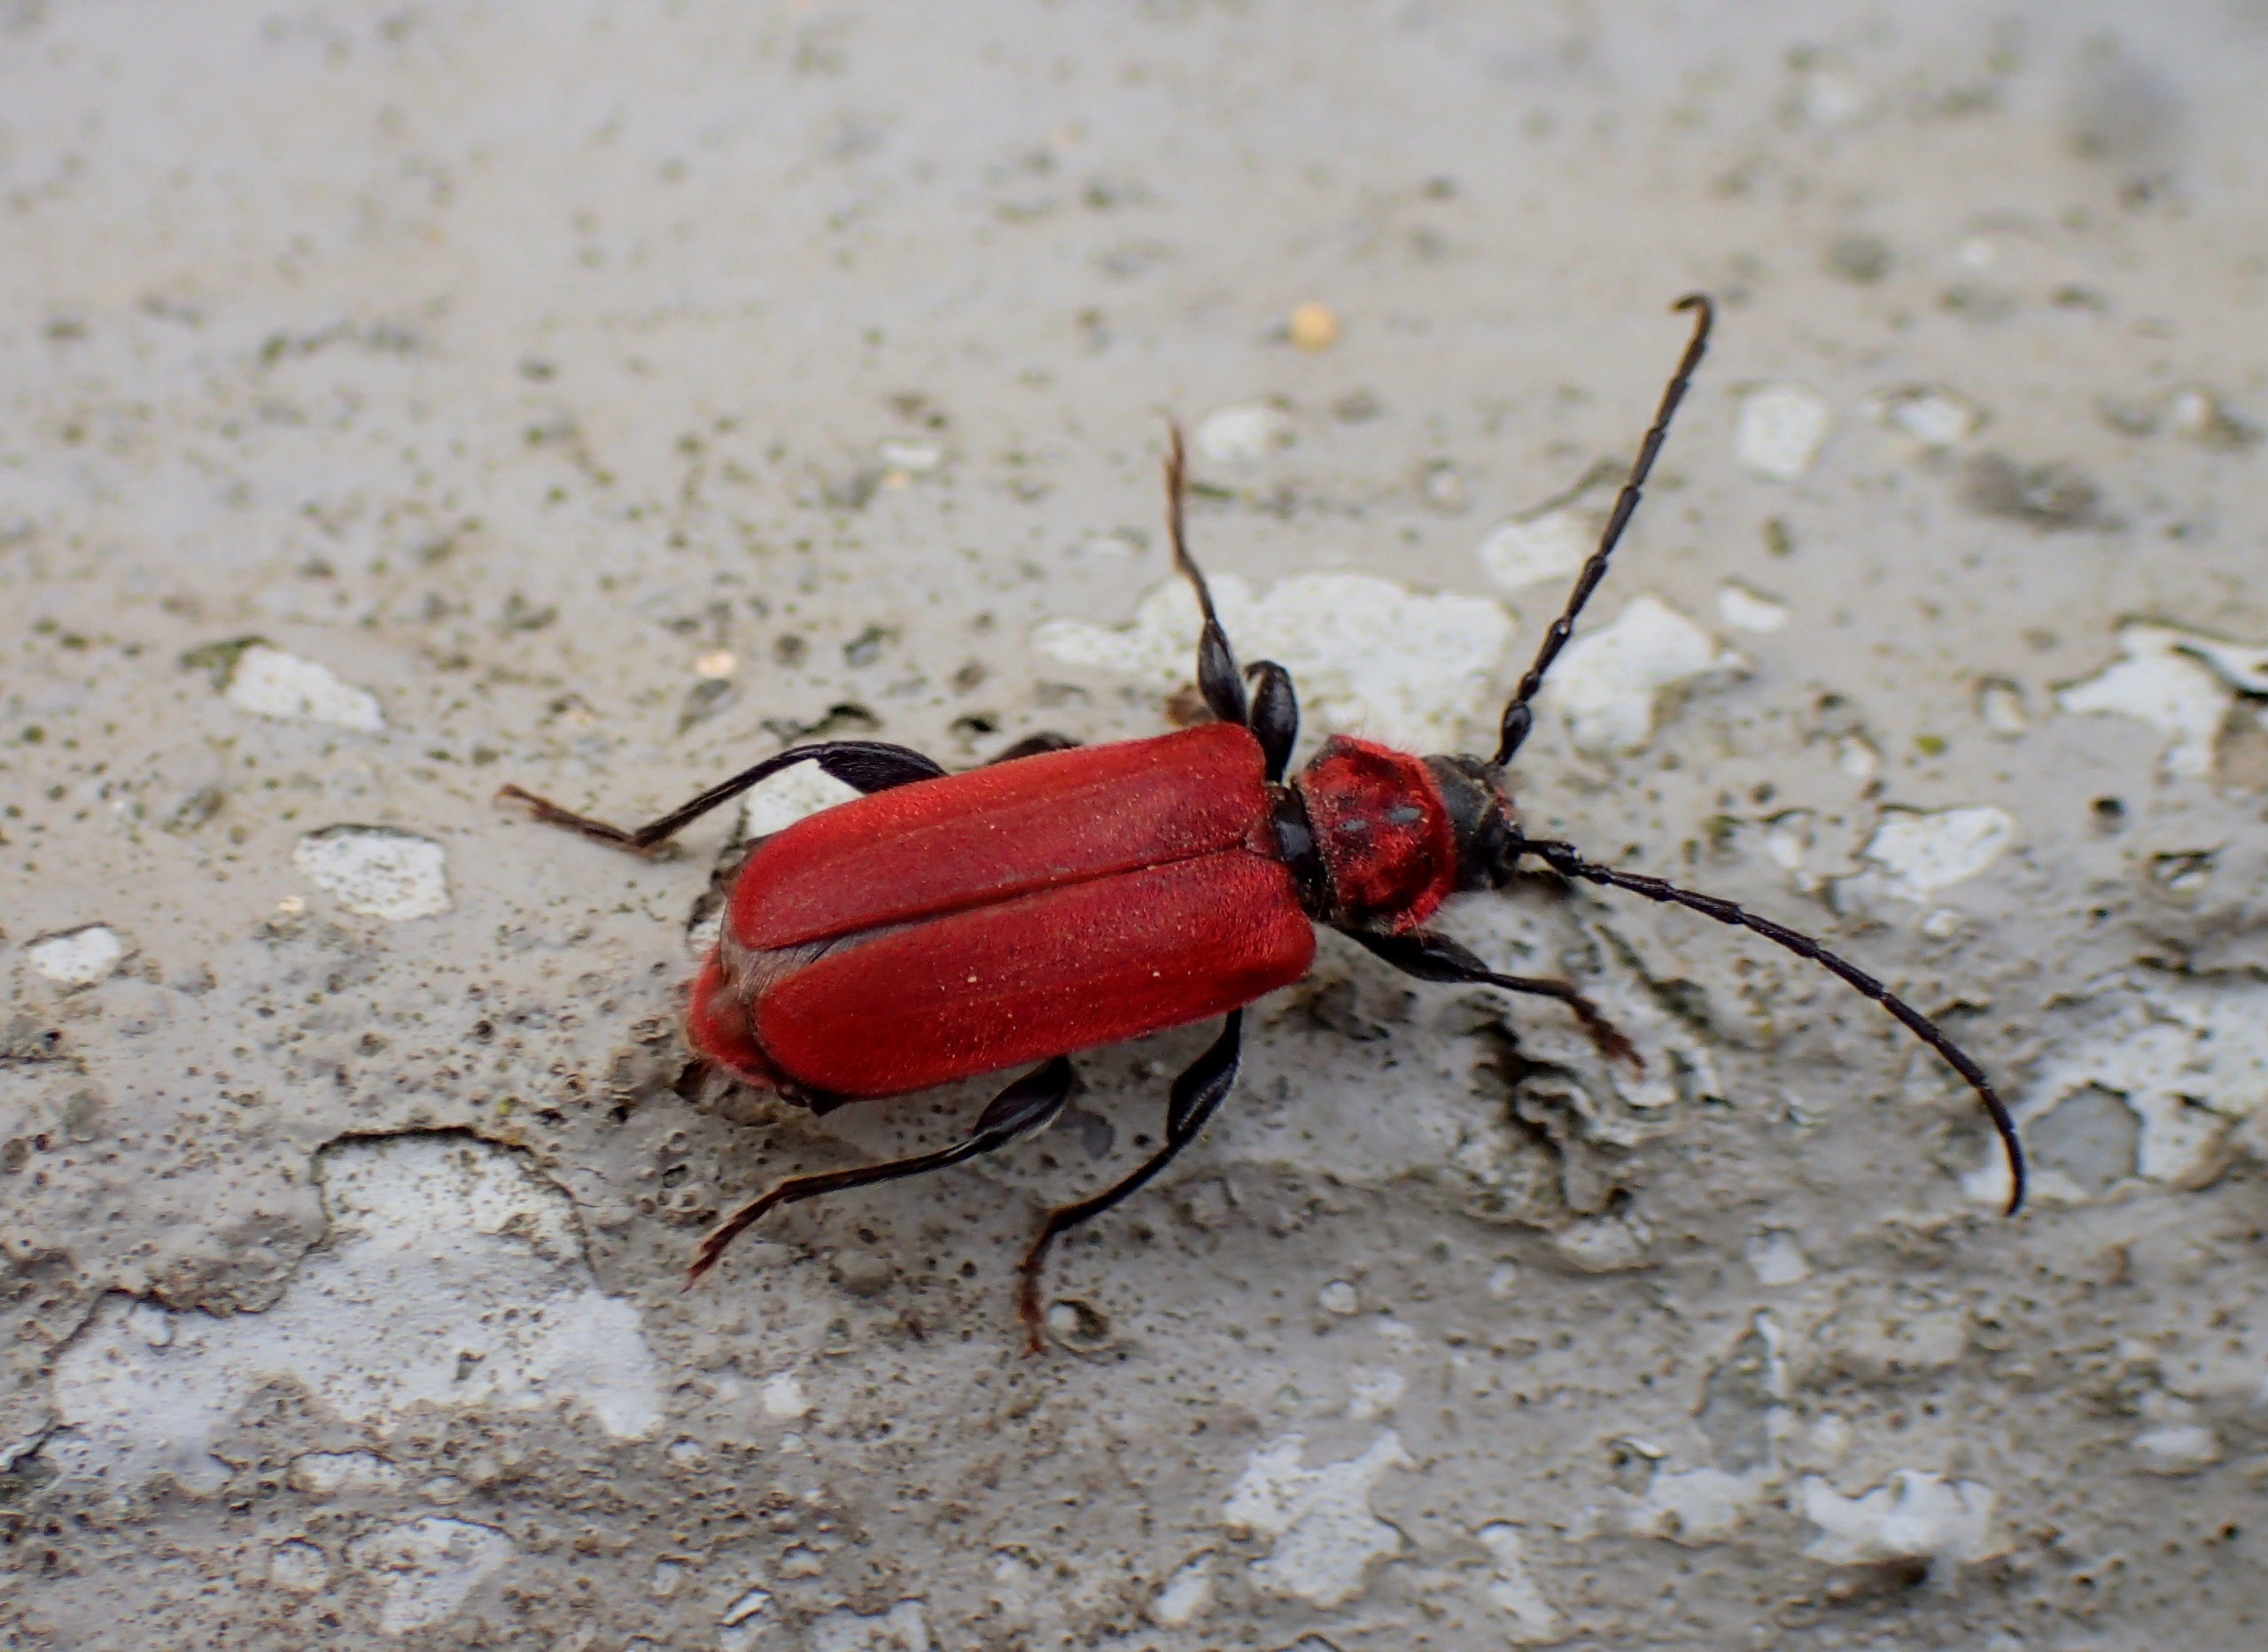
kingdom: Animalia
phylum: Arthropoda
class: Insecta
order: Coleoptera
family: Cerambycidae
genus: Pyrrhidium
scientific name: Pyrrhidium sanguineum
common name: Rød skivebuk
